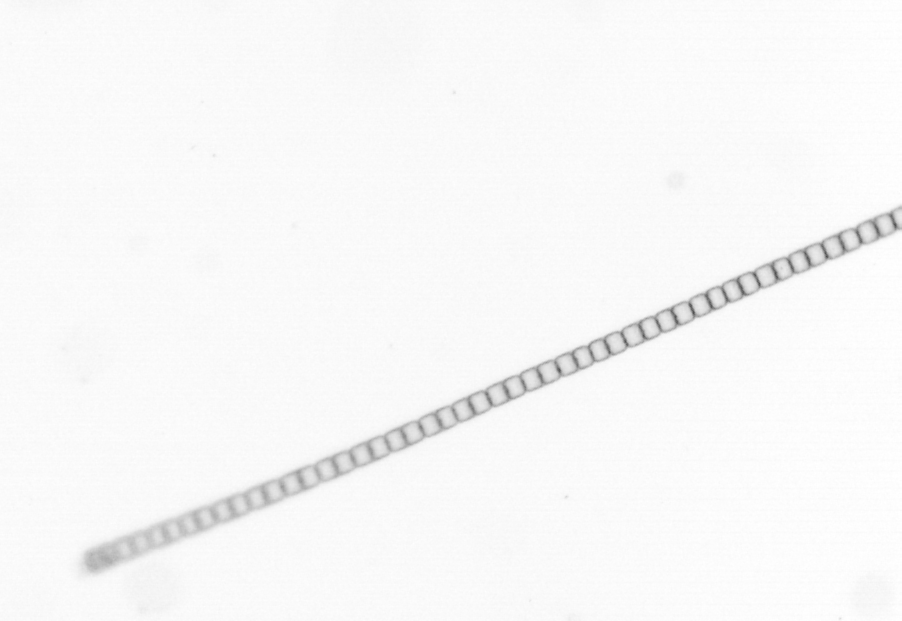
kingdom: Chromista
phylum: Ochrophyta
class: Bacillariophyceae
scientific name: Bacillariophyceae
